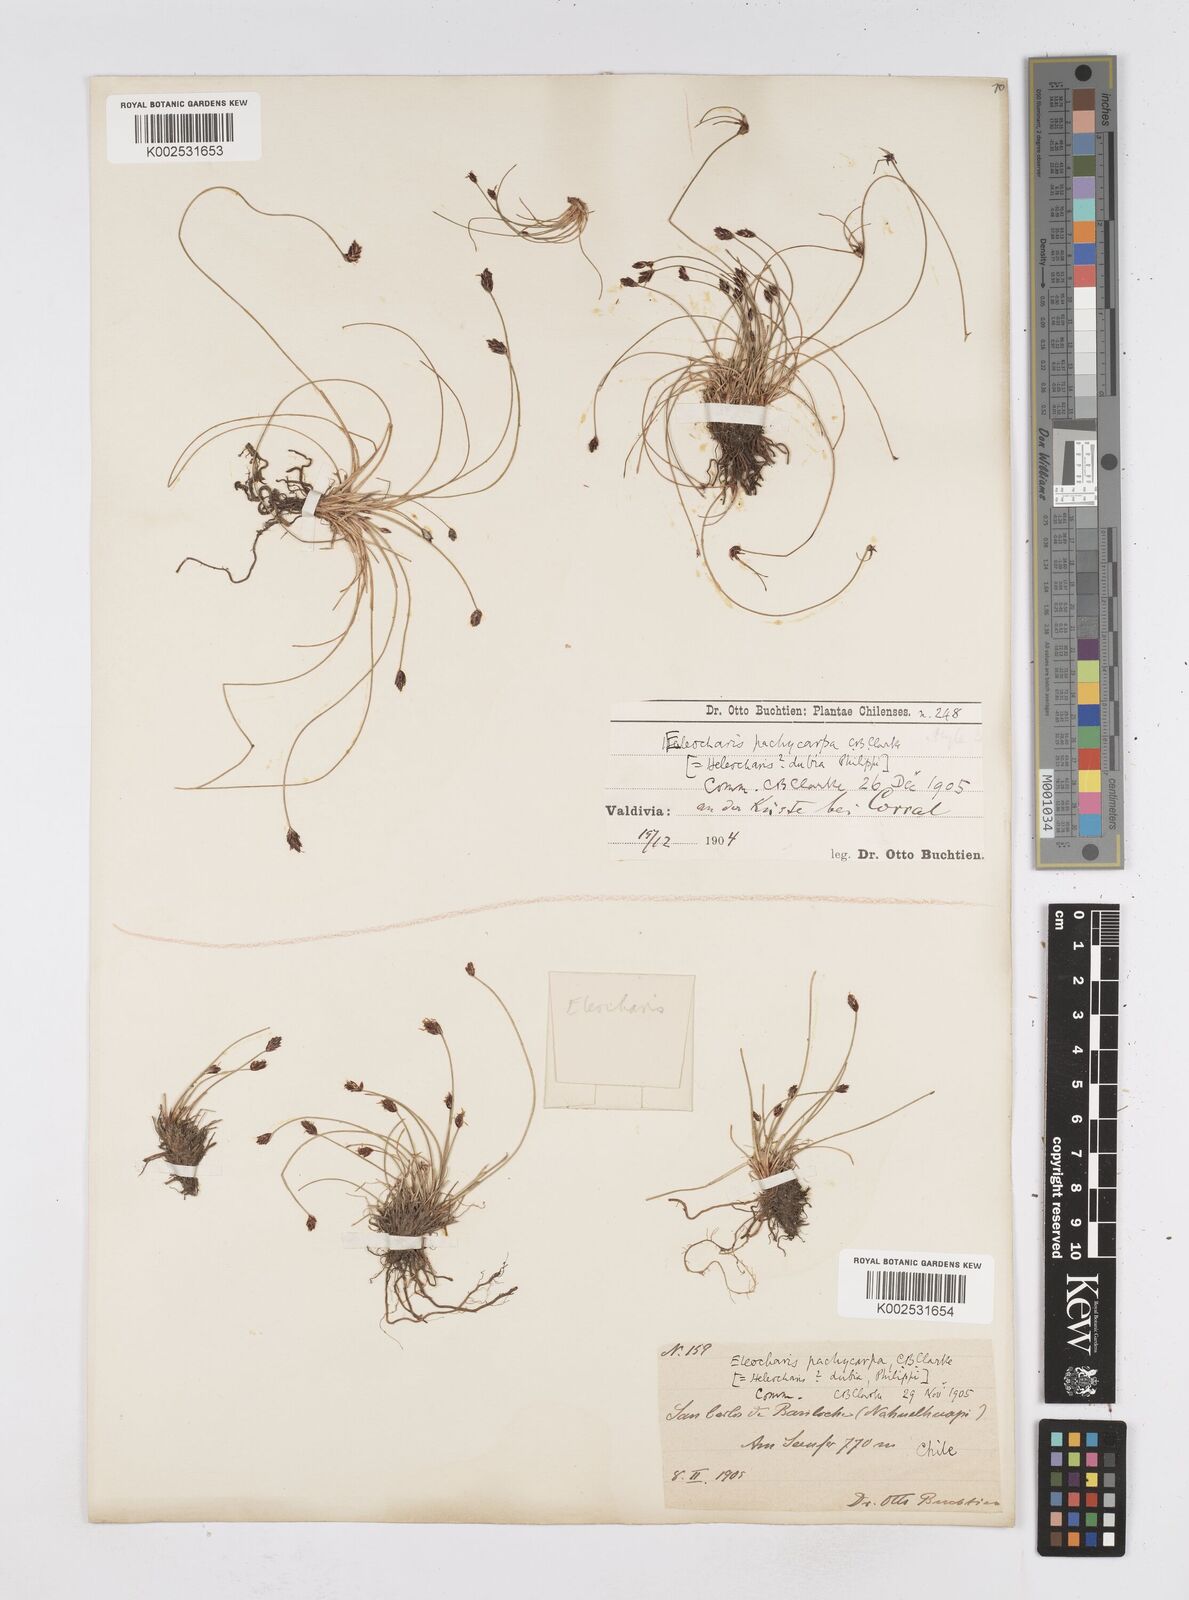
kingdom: Plantae
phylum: Tracheophyta
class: Liliopsida
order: Poales
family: Cyperaceae
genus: Eleocharis
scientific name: Eleocharis pachycarpa
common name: Black sand spikerush
